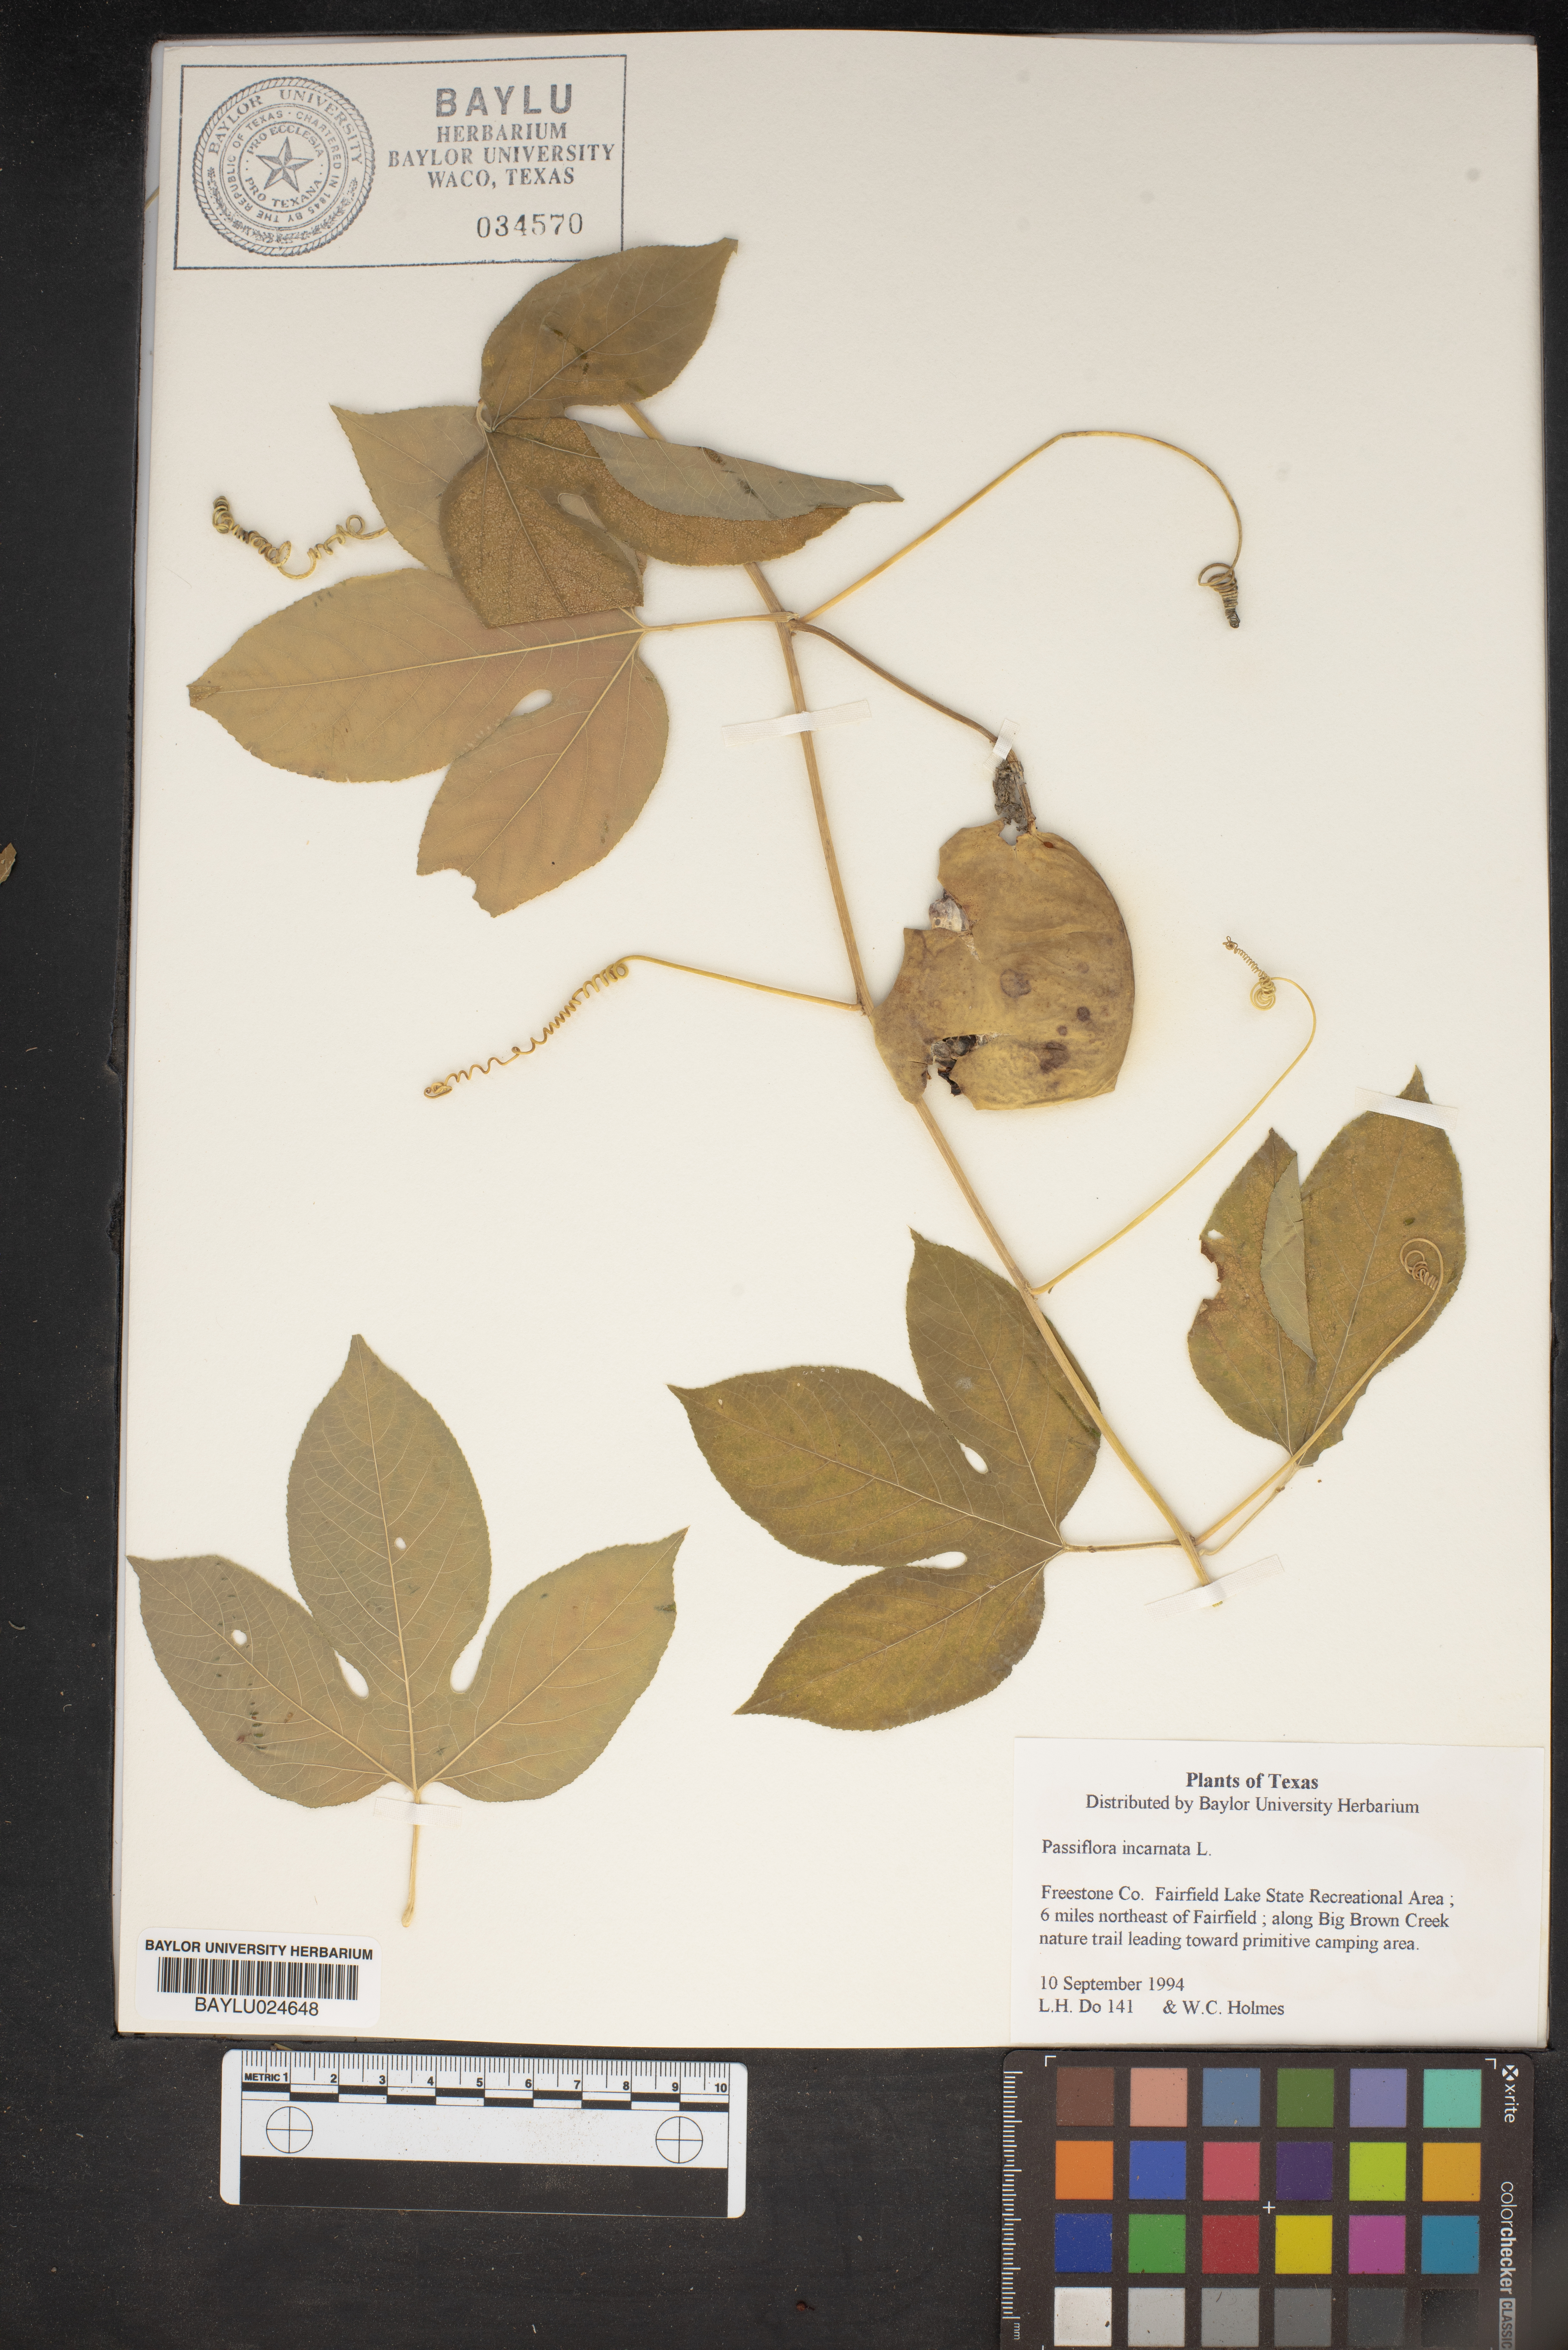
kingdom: Plantae
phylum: Tracheophyta
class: Magnoliopsida
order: Malpighiales
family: Passifloraceae
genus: Passiflora
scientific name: Passiflora incarnata
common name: Apricot-vine
